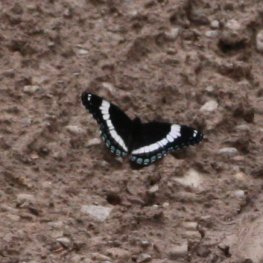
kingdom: Animalia
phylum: Arthropoda
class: Insecta
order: Lepidoptera
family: Nymphalidae
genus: Limenitis
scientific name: Limenitis arthemis
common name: Red-spotted Admiral
